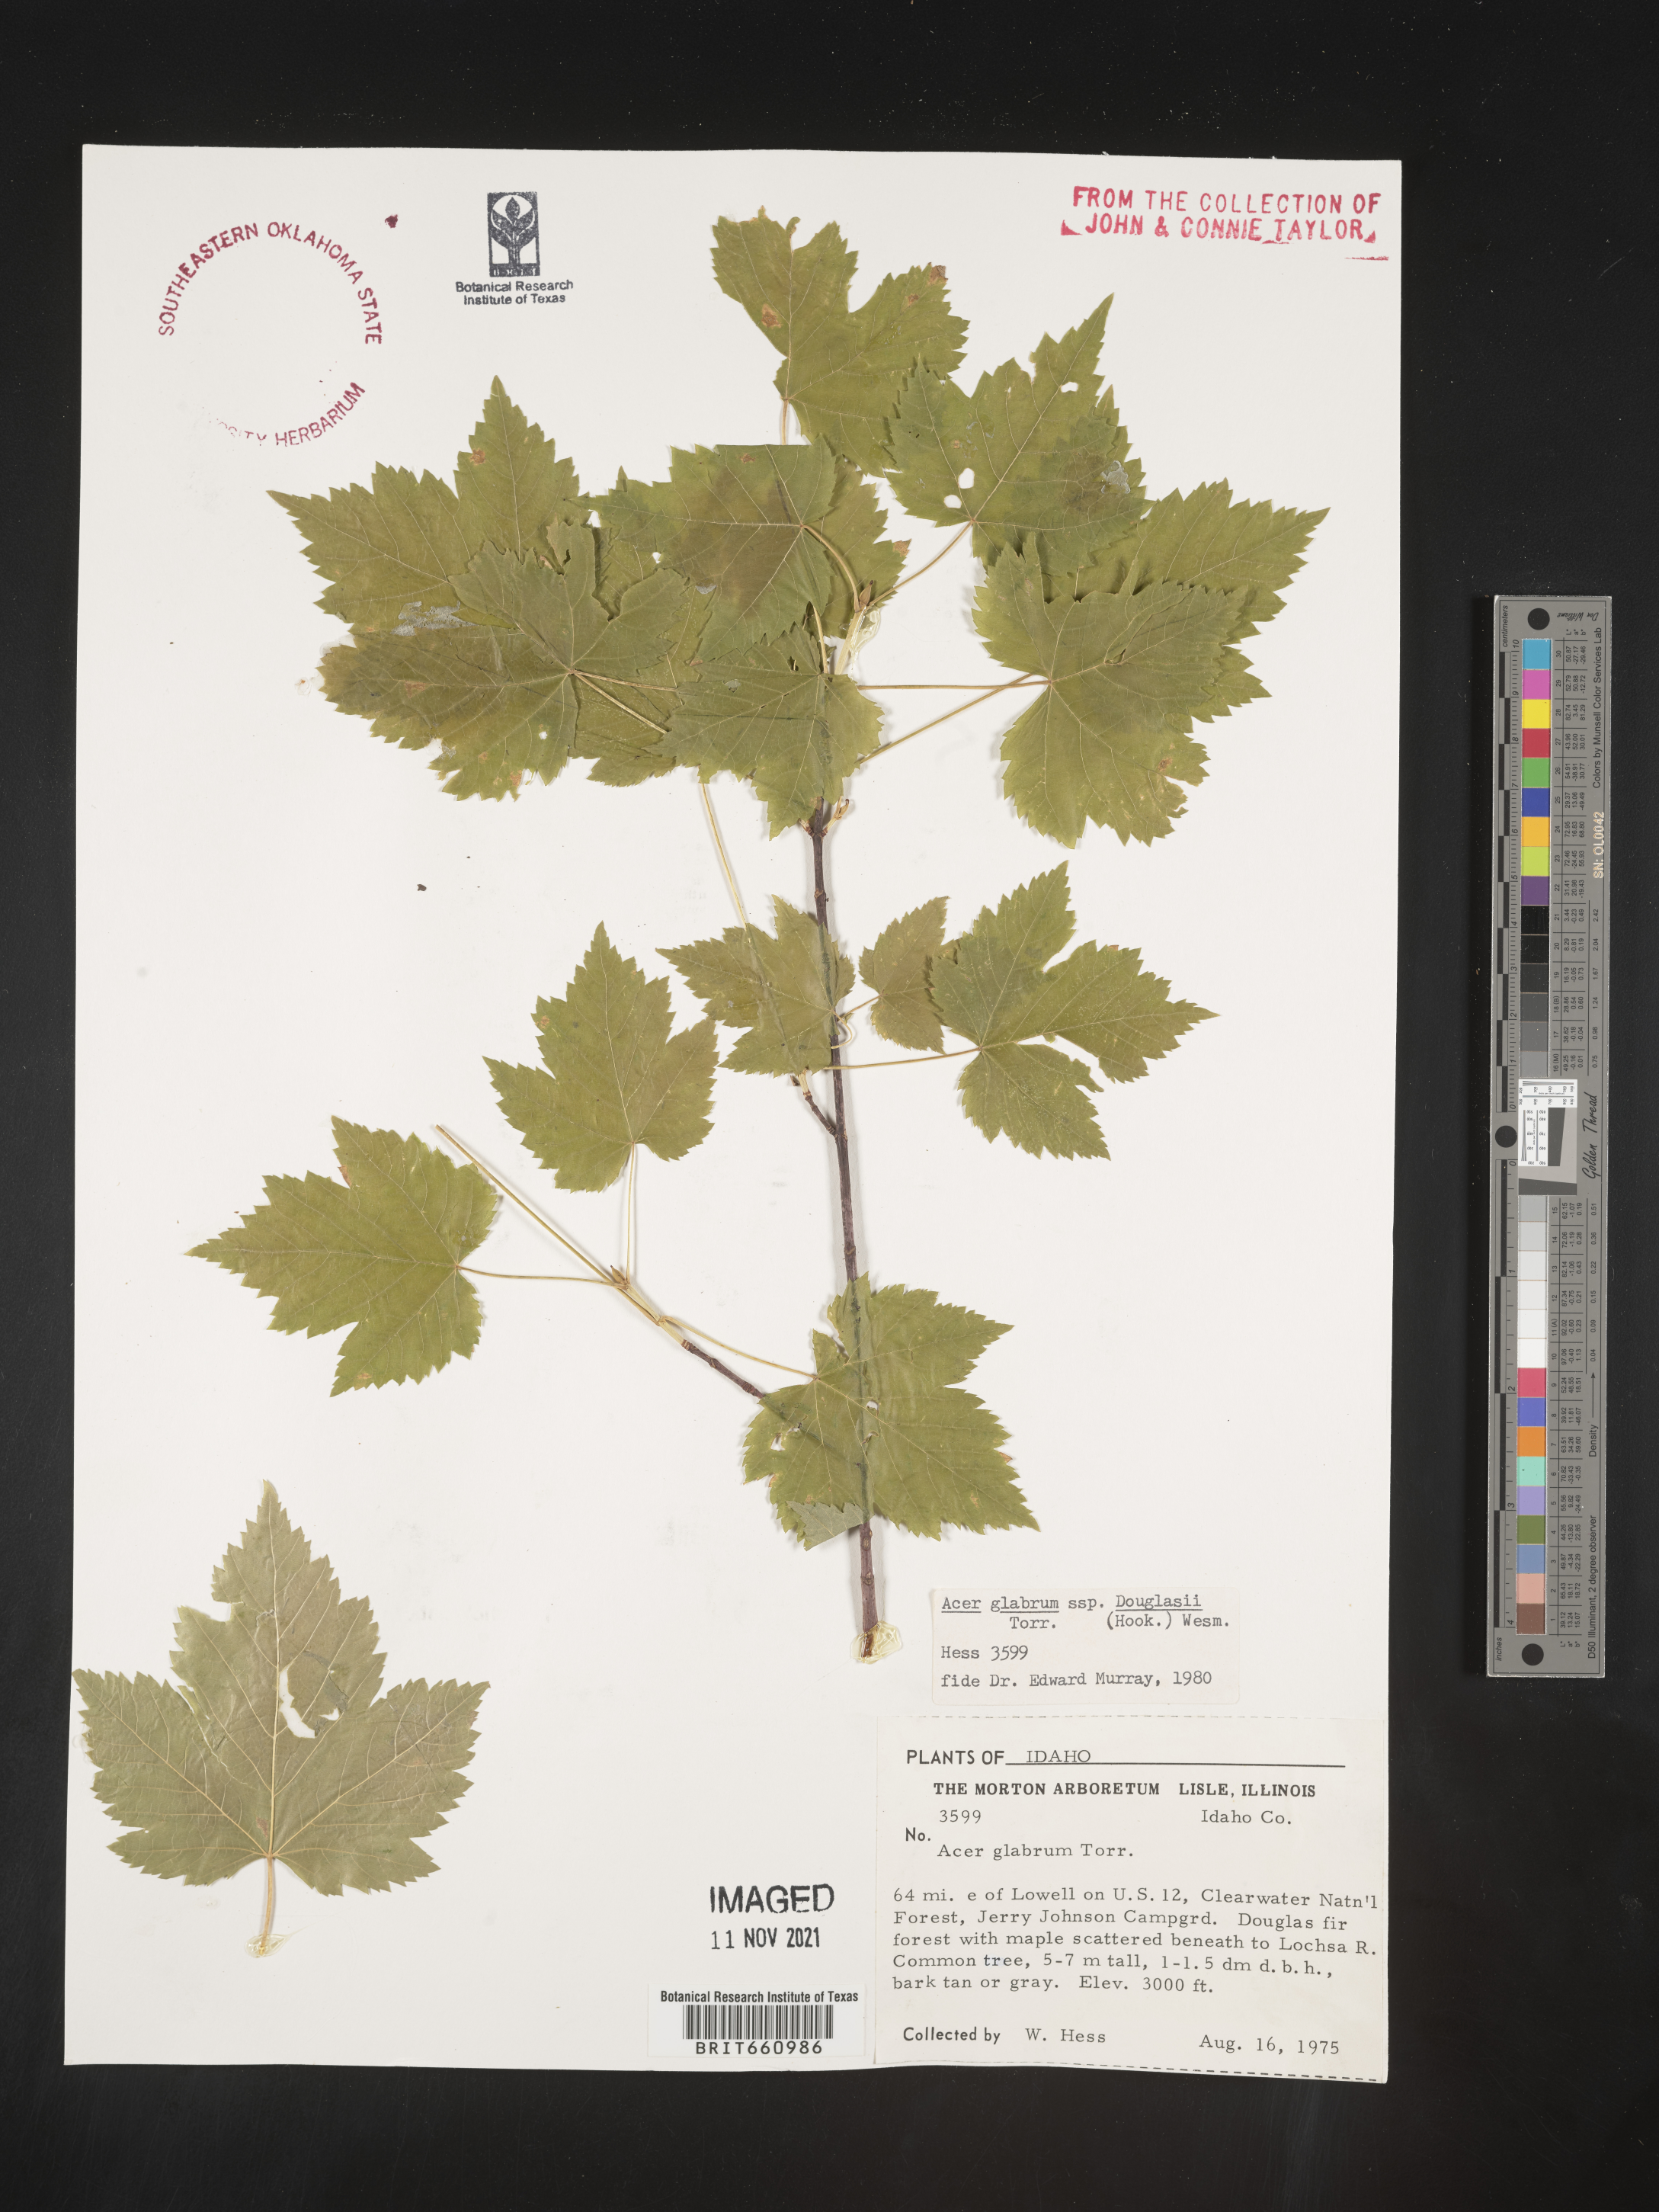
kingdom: Plantae
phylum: Tracheophyta
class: Magnoliopsida
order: Sapindales
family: Sapindaceae
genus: Acer
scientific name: Acer glabrum
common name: Rocky mountain maple
